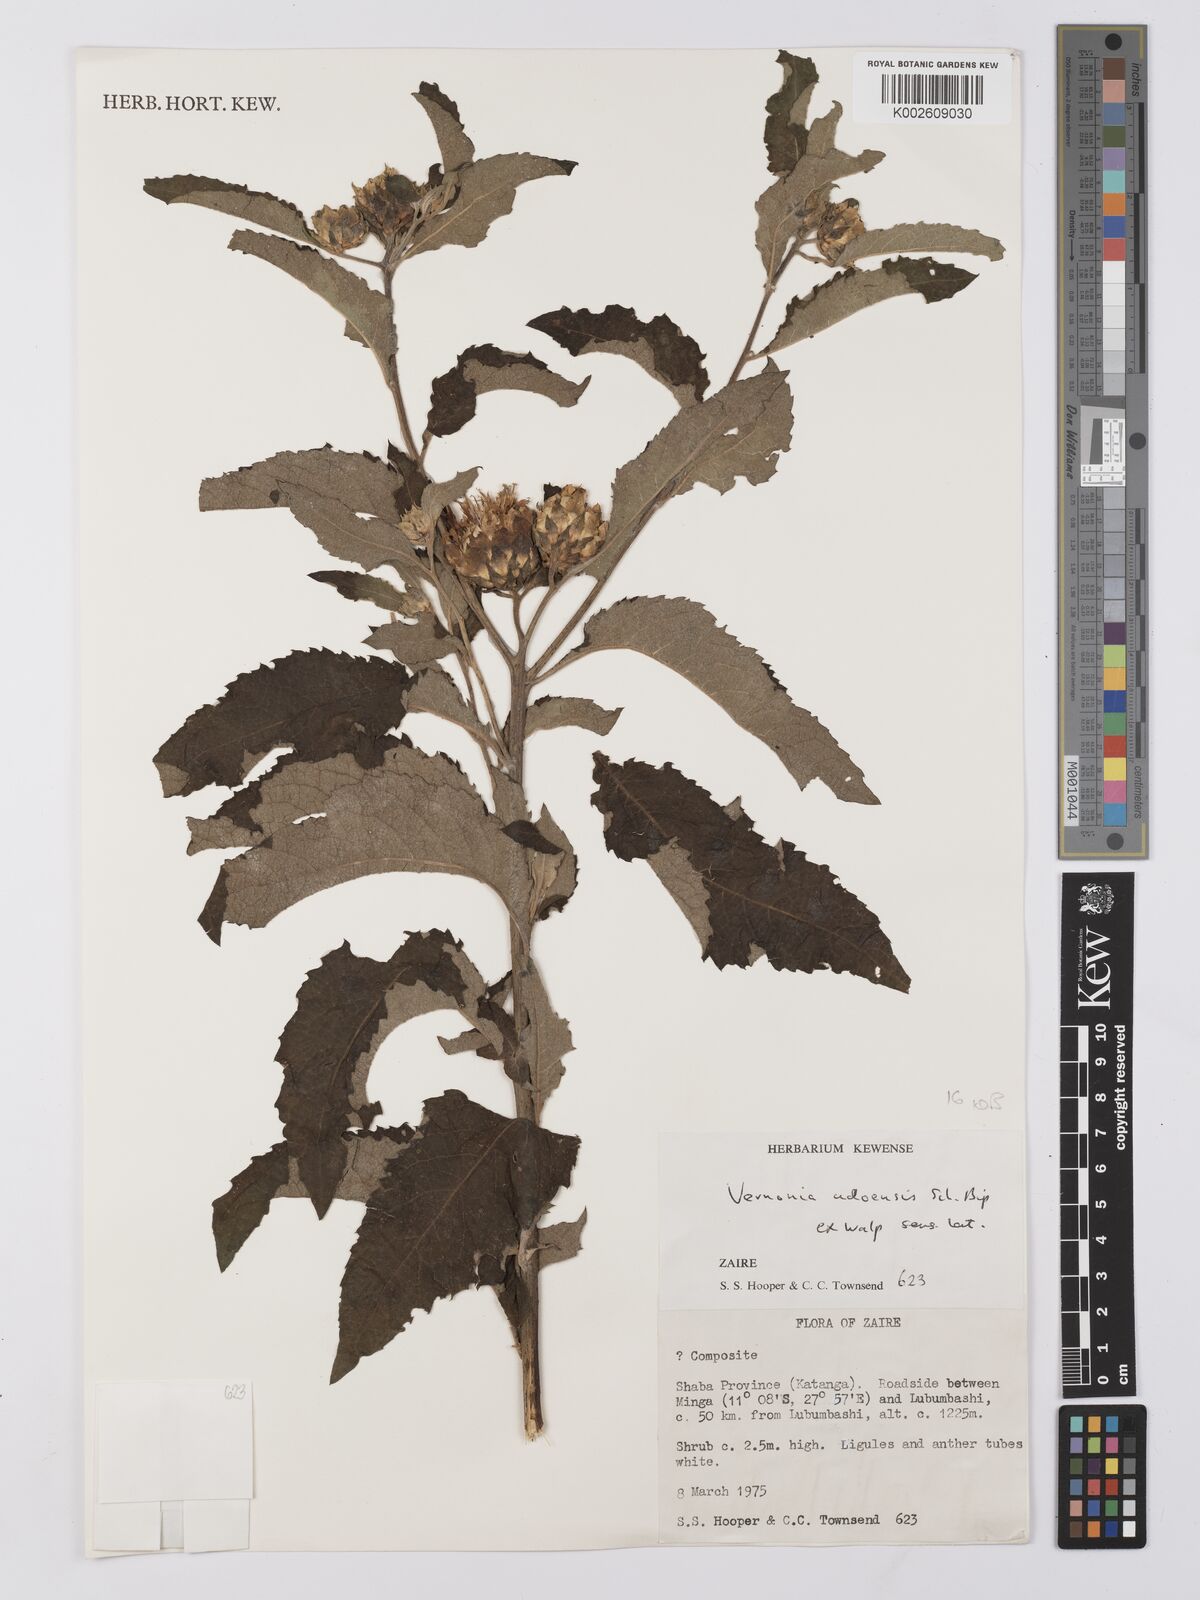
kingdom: Plantae
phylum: Tracheophyta
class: Magnoliopsida
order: Asterales
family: Asteraceae
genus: Baccharoides
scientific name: Baccharoides adoensis
